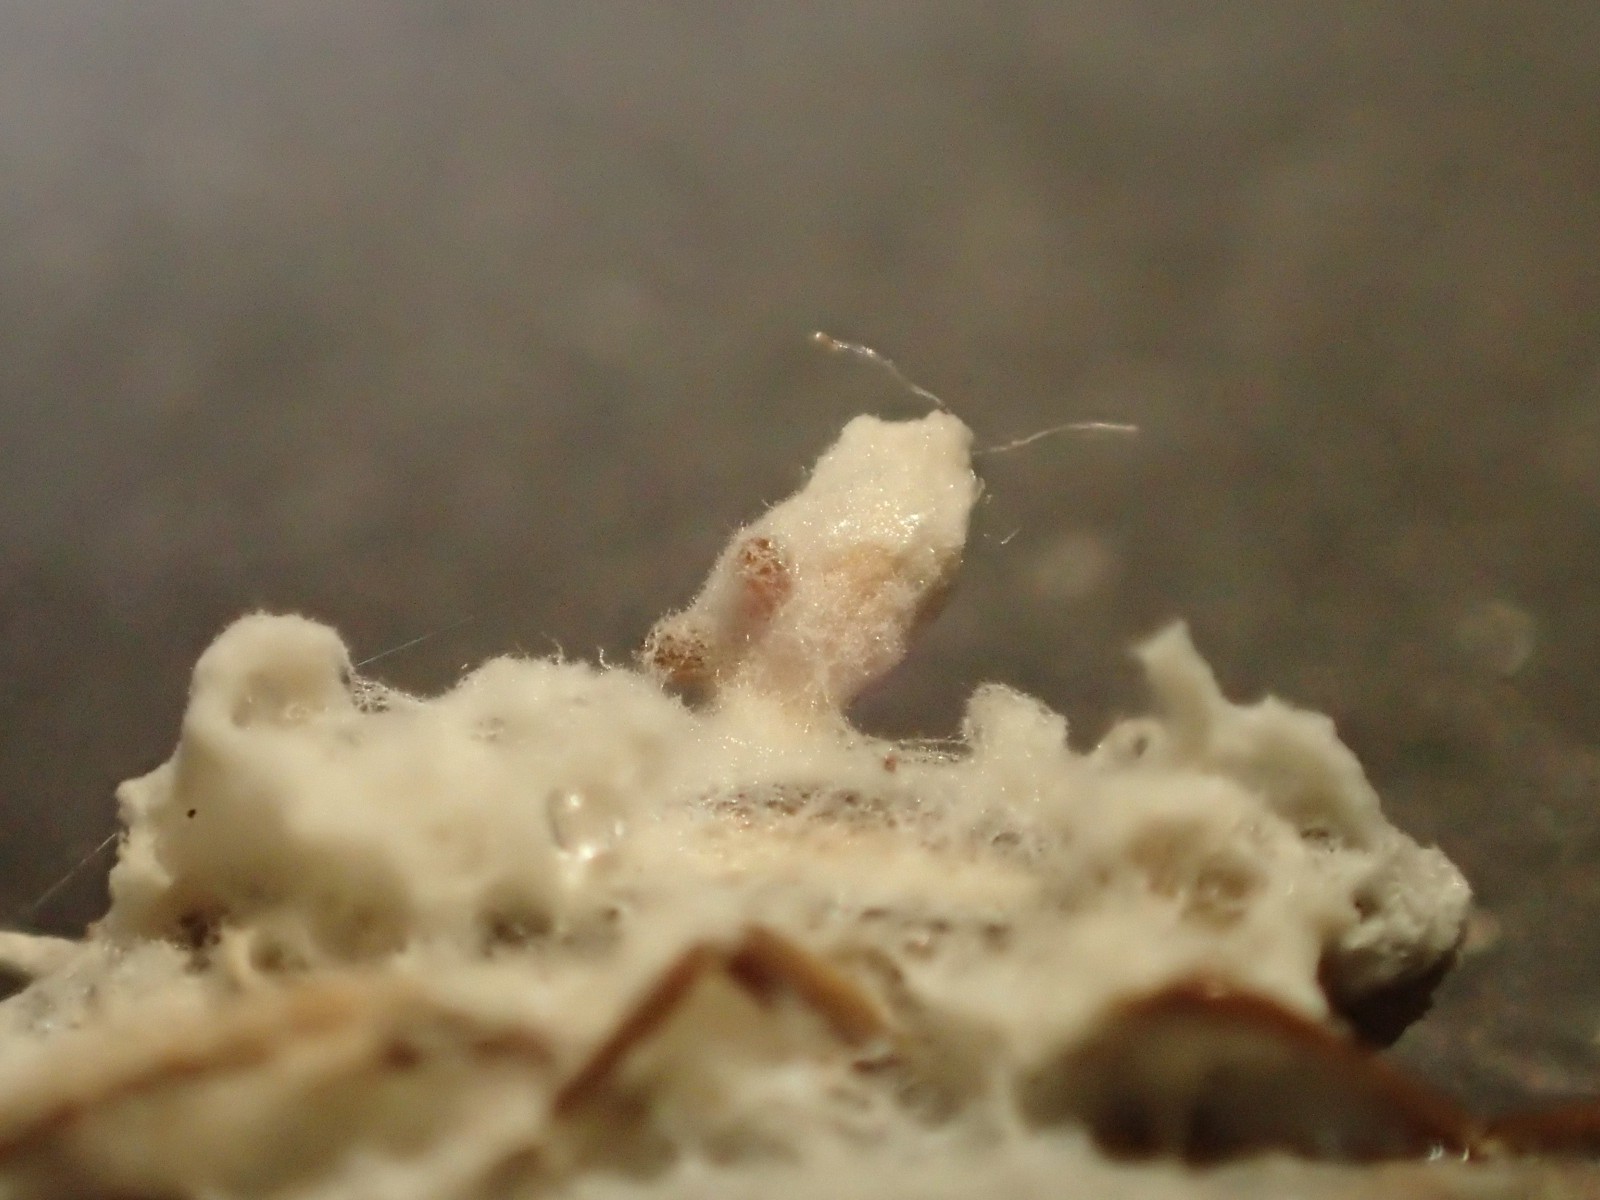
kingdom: Fungi
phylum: Ascomycota
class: Sordariomycetes
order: Hypocreales
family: Ophiocordycipitaceae
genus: Ophiocordyceps
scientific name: Ophiocordyceps
